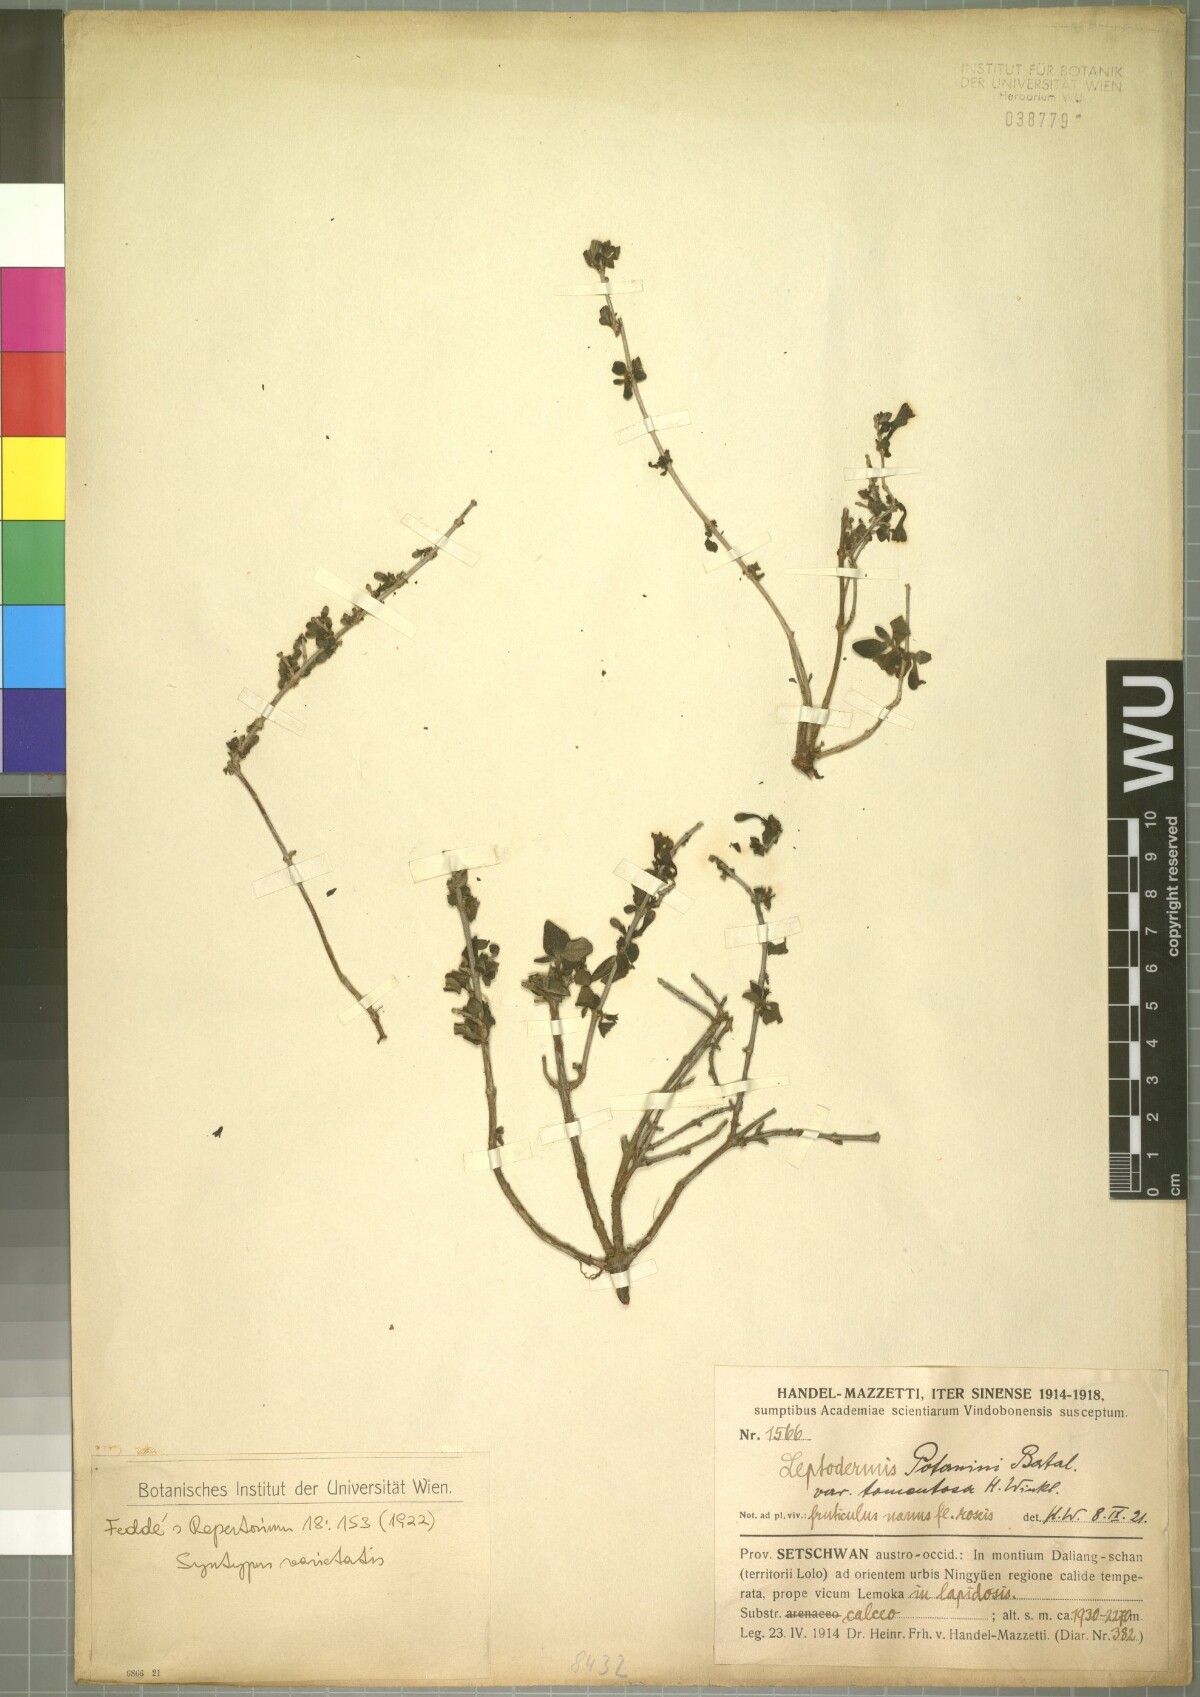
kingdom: Plantae
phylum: Tracheophyta
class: Magnoliopsida
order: Gentianales
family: Rubiaceae
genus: Leptodermis
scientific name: Leptodermis potaninii
